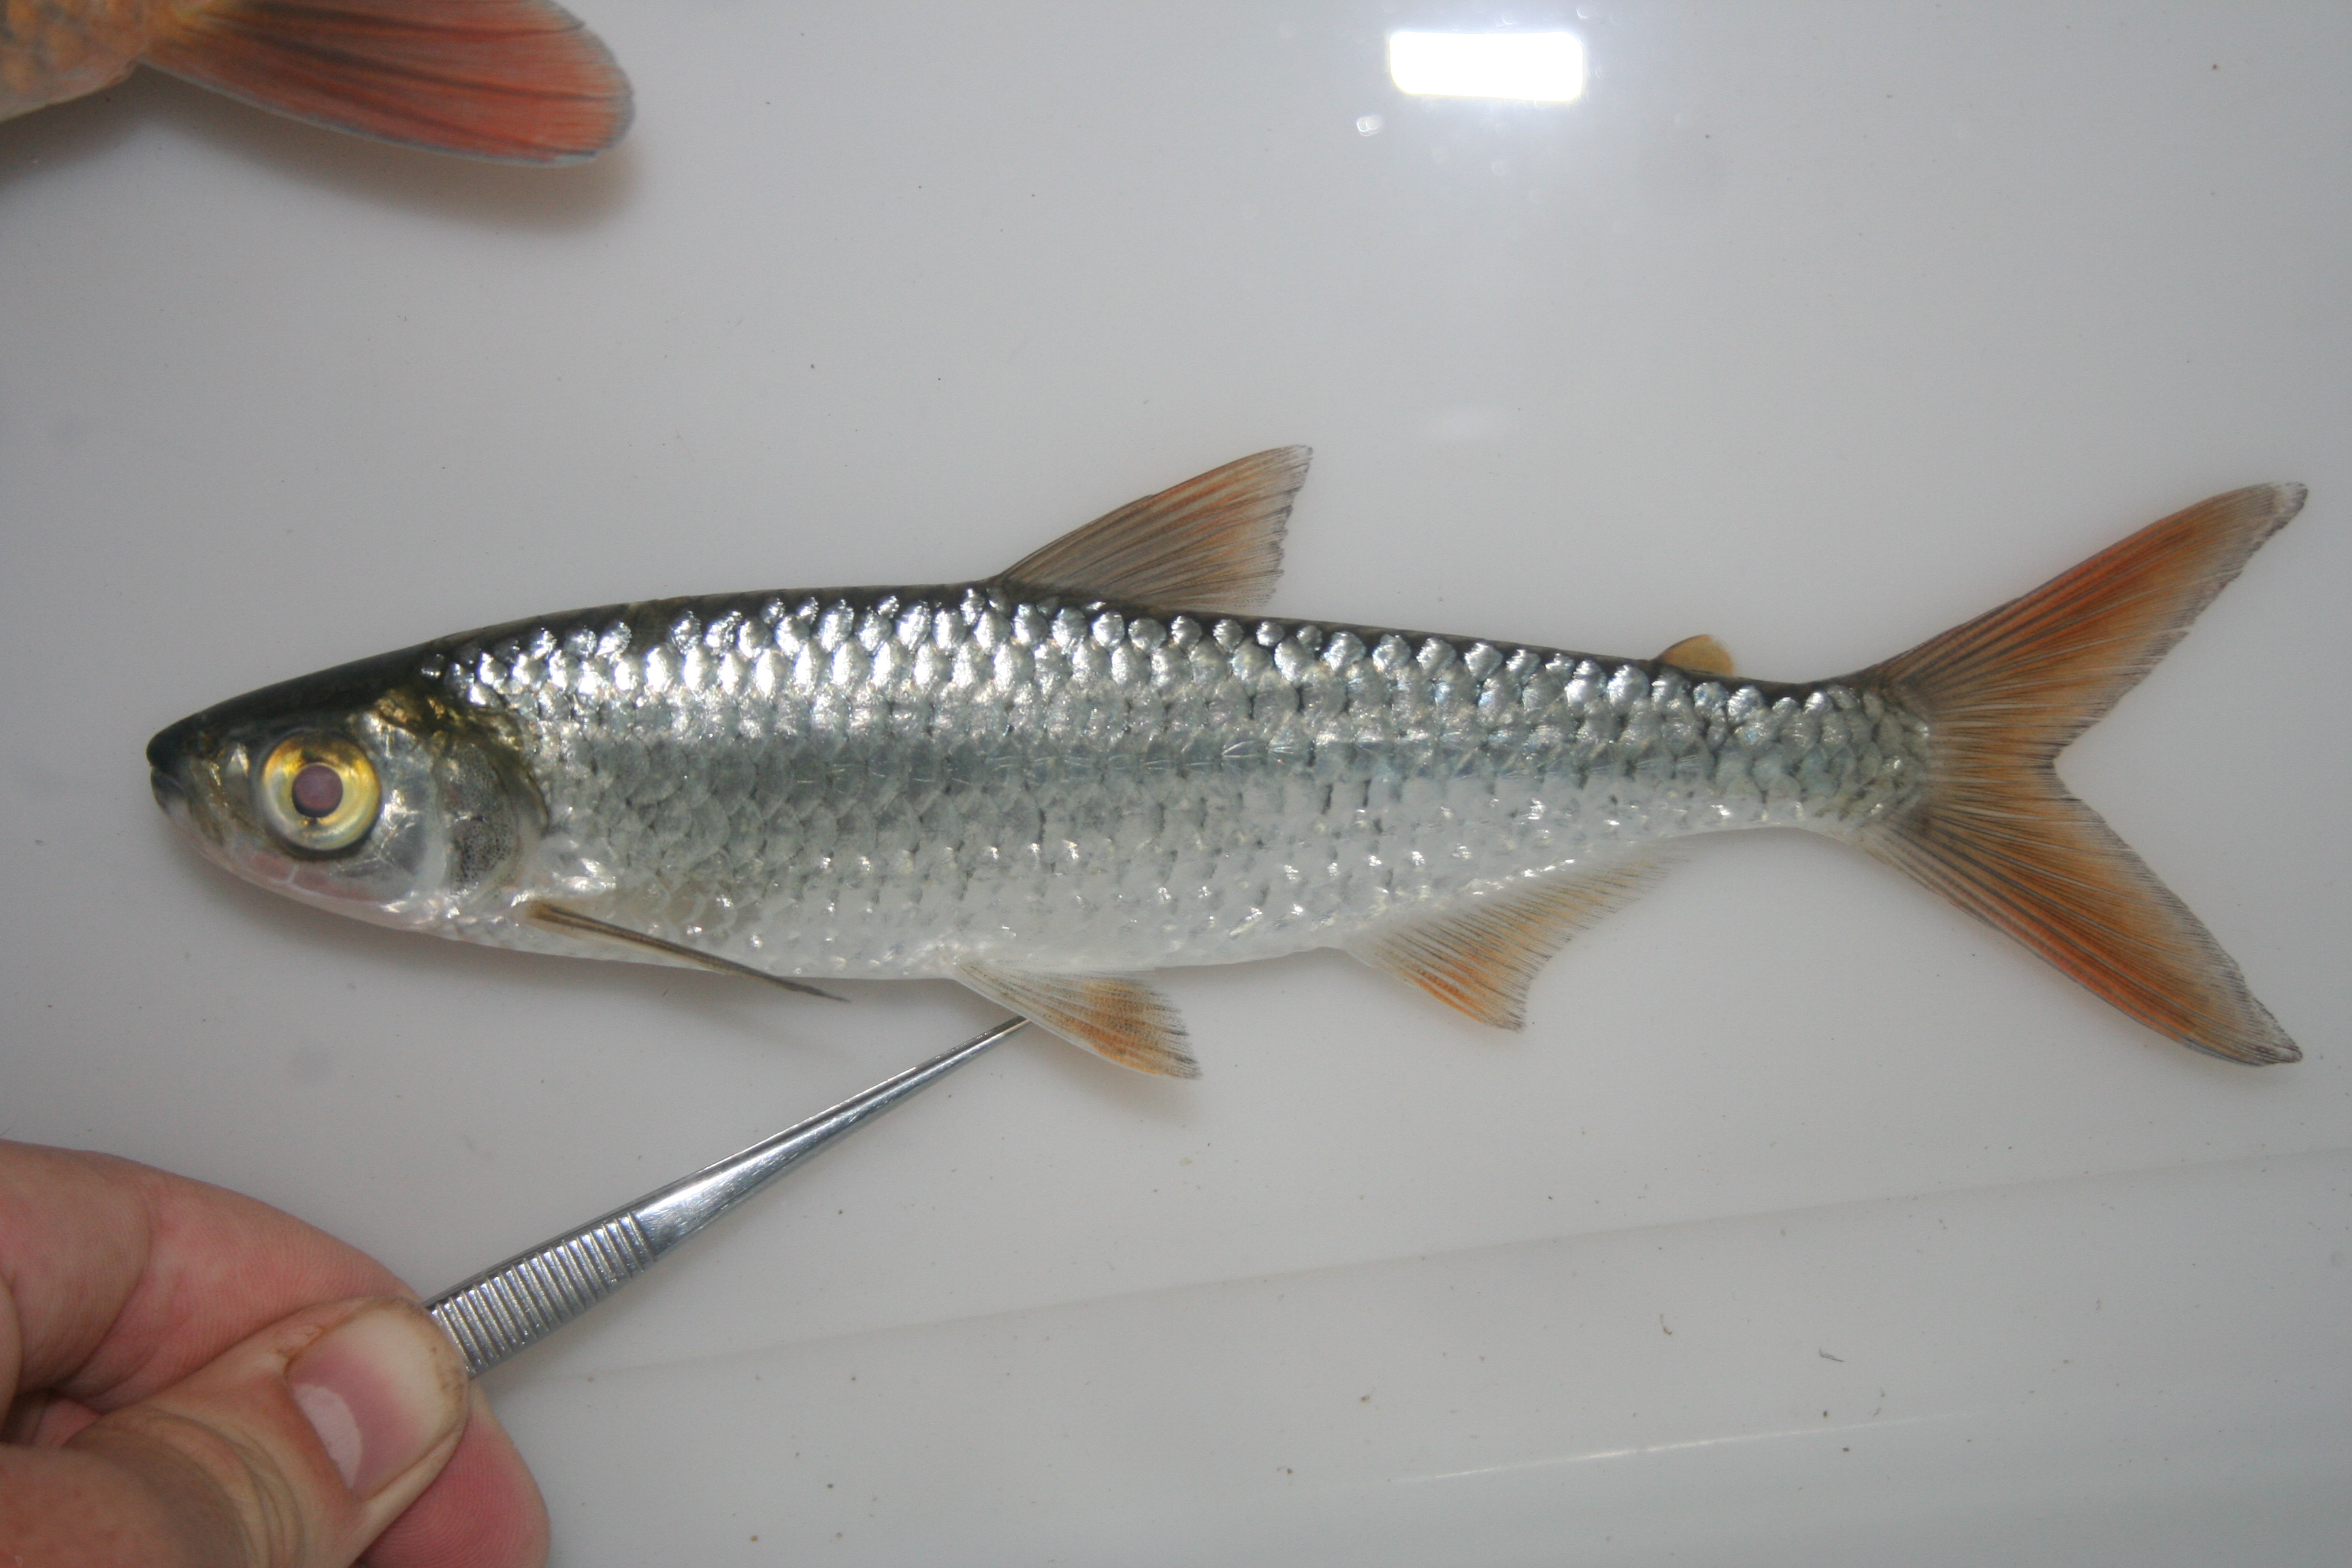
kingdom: Animalia
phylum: Chordata
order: Characiformes
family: Alestidae
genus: Alestes
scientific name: Alestes
